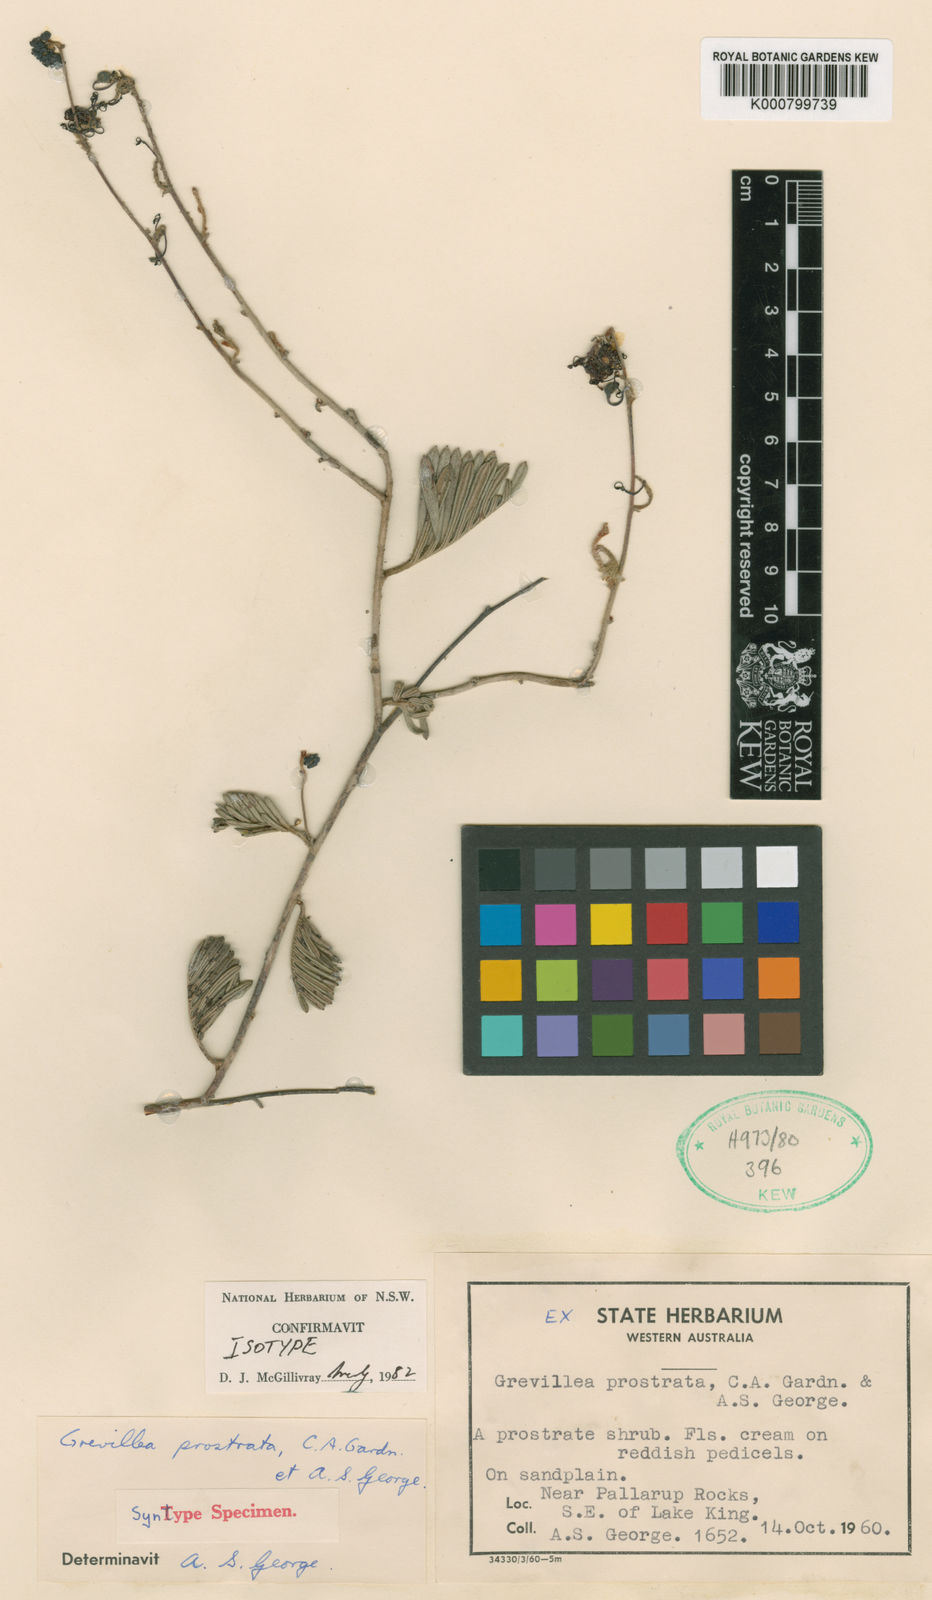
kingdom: Plantae
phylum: Tracheophyta
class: Magnoliopsida
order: Proteales
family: Proteaceae
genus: Grevillea
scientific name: Grevillea prostrata
